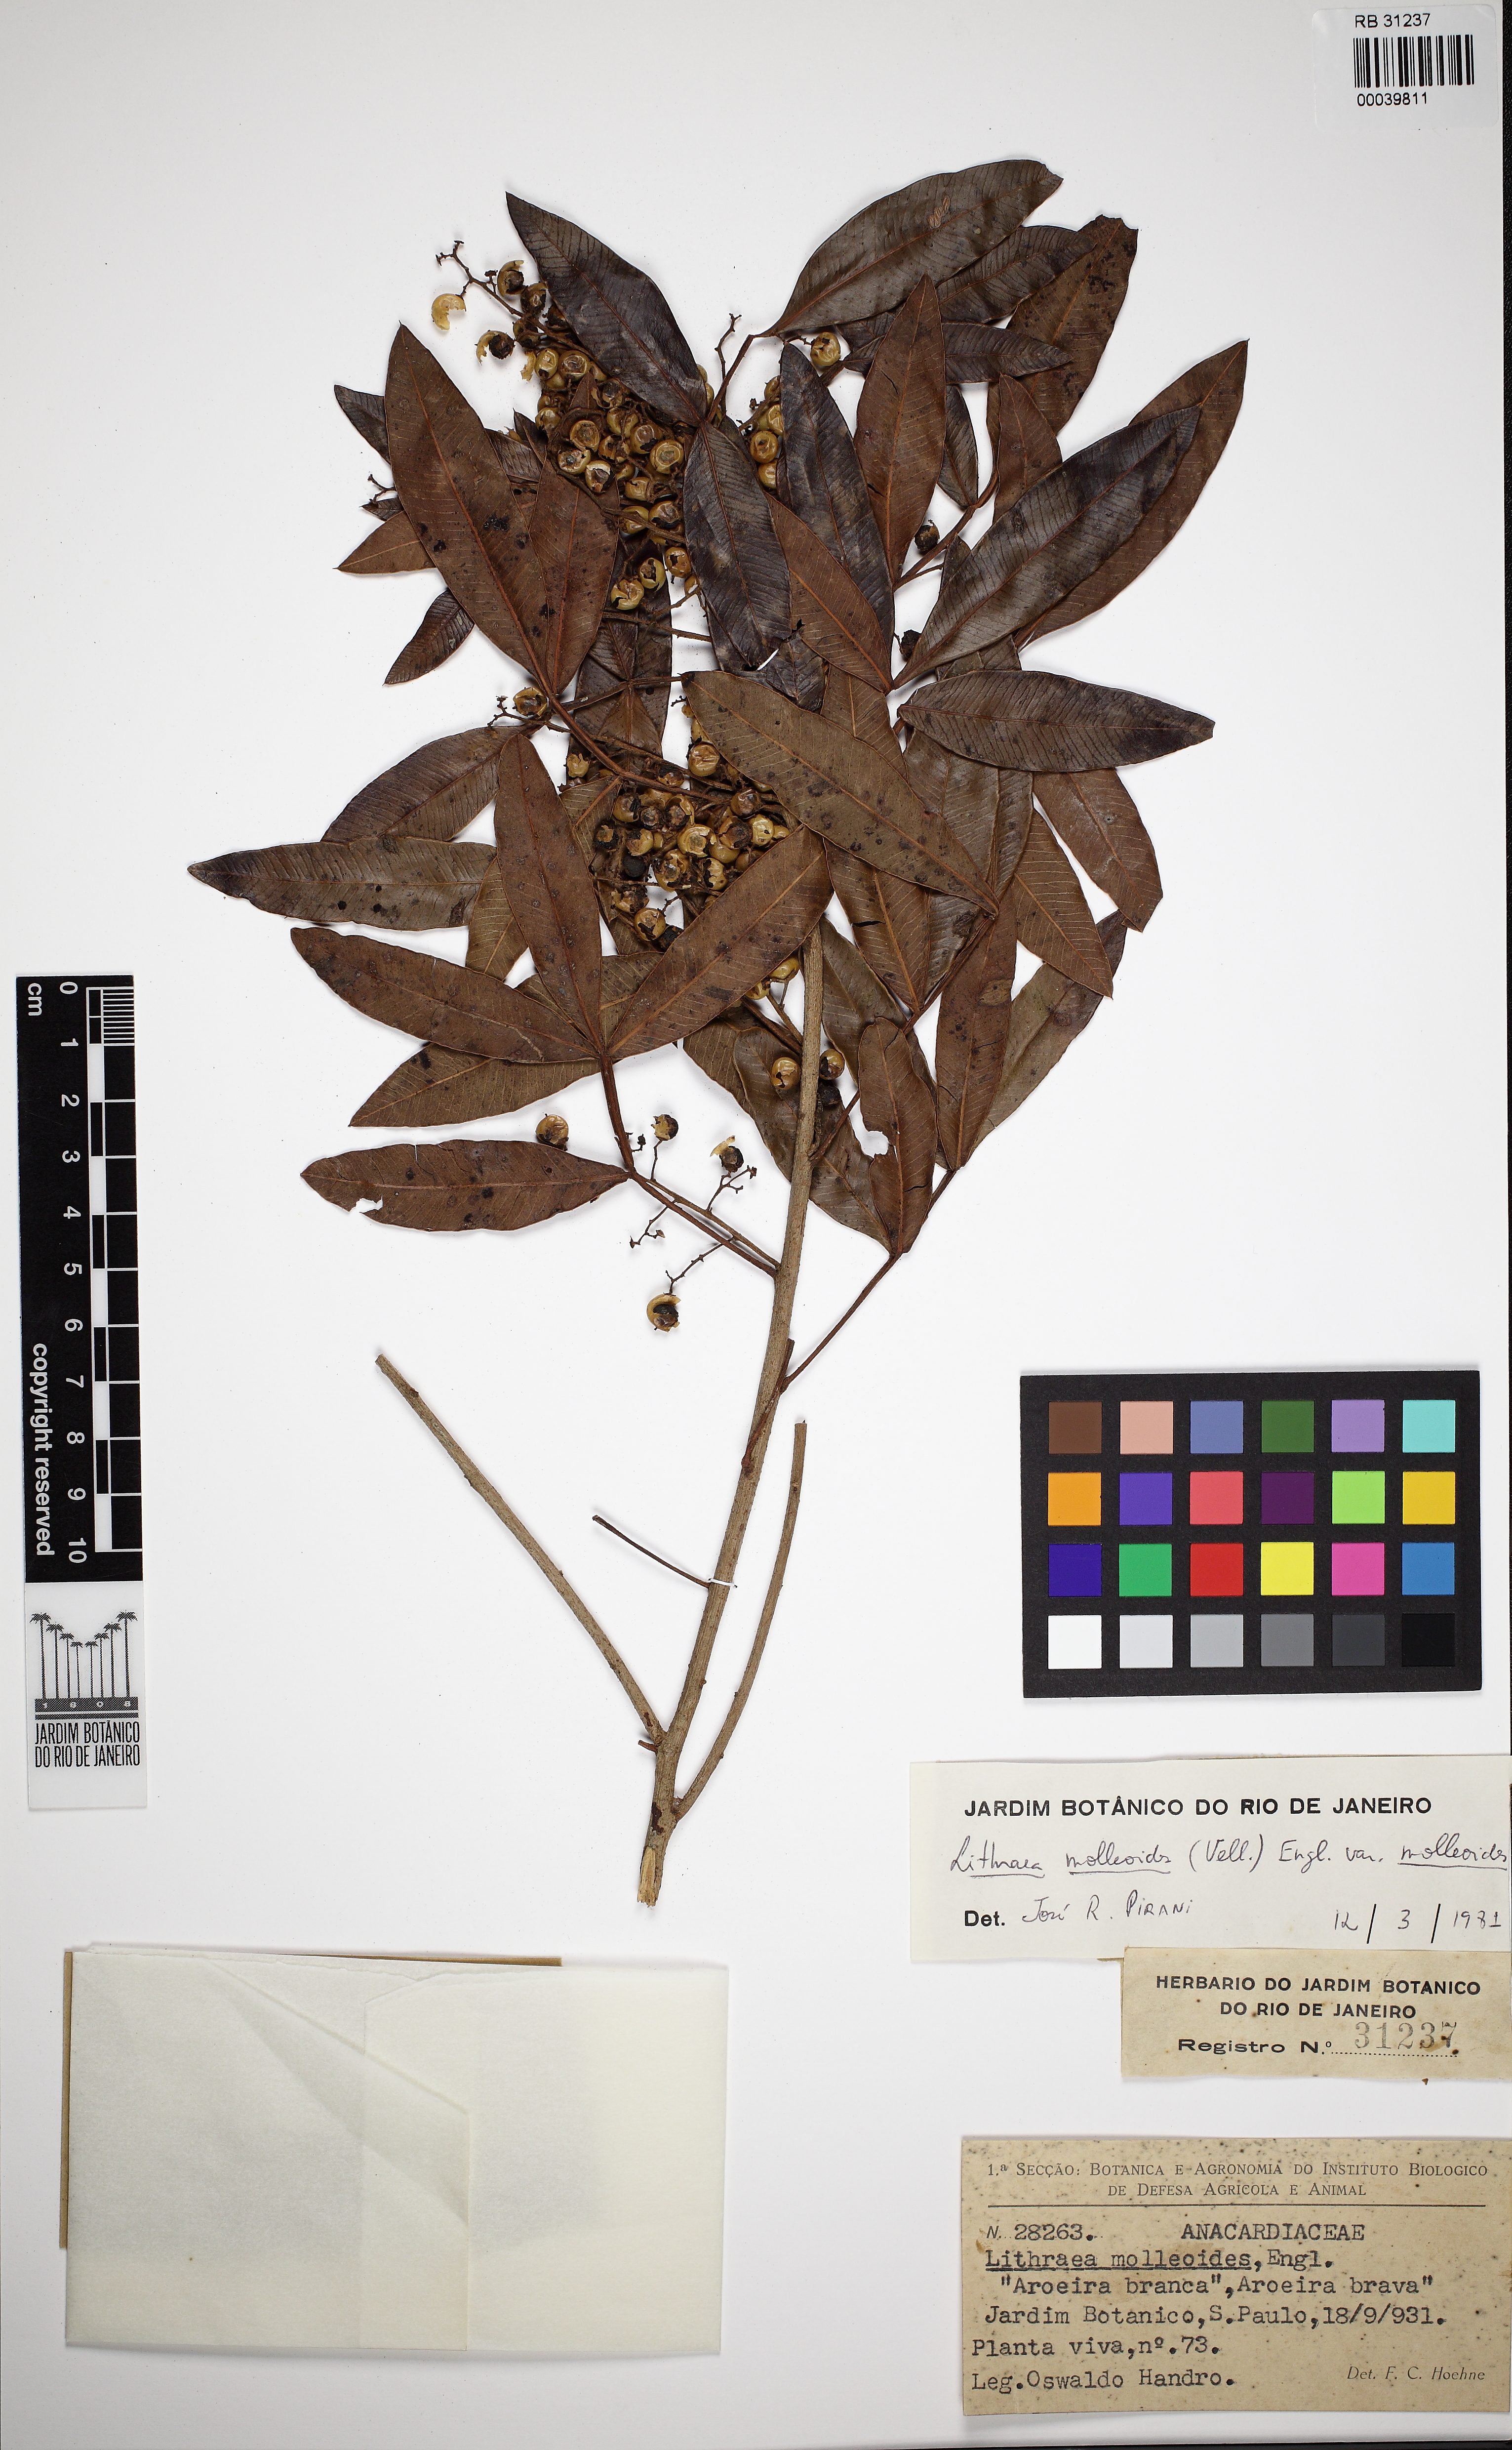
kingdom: Plantae
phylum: Tracheophyta
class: Magnoliopsida
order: Sapindales
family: Anacardiaceae
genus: Lithraea
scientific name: Lithraea molleoides
